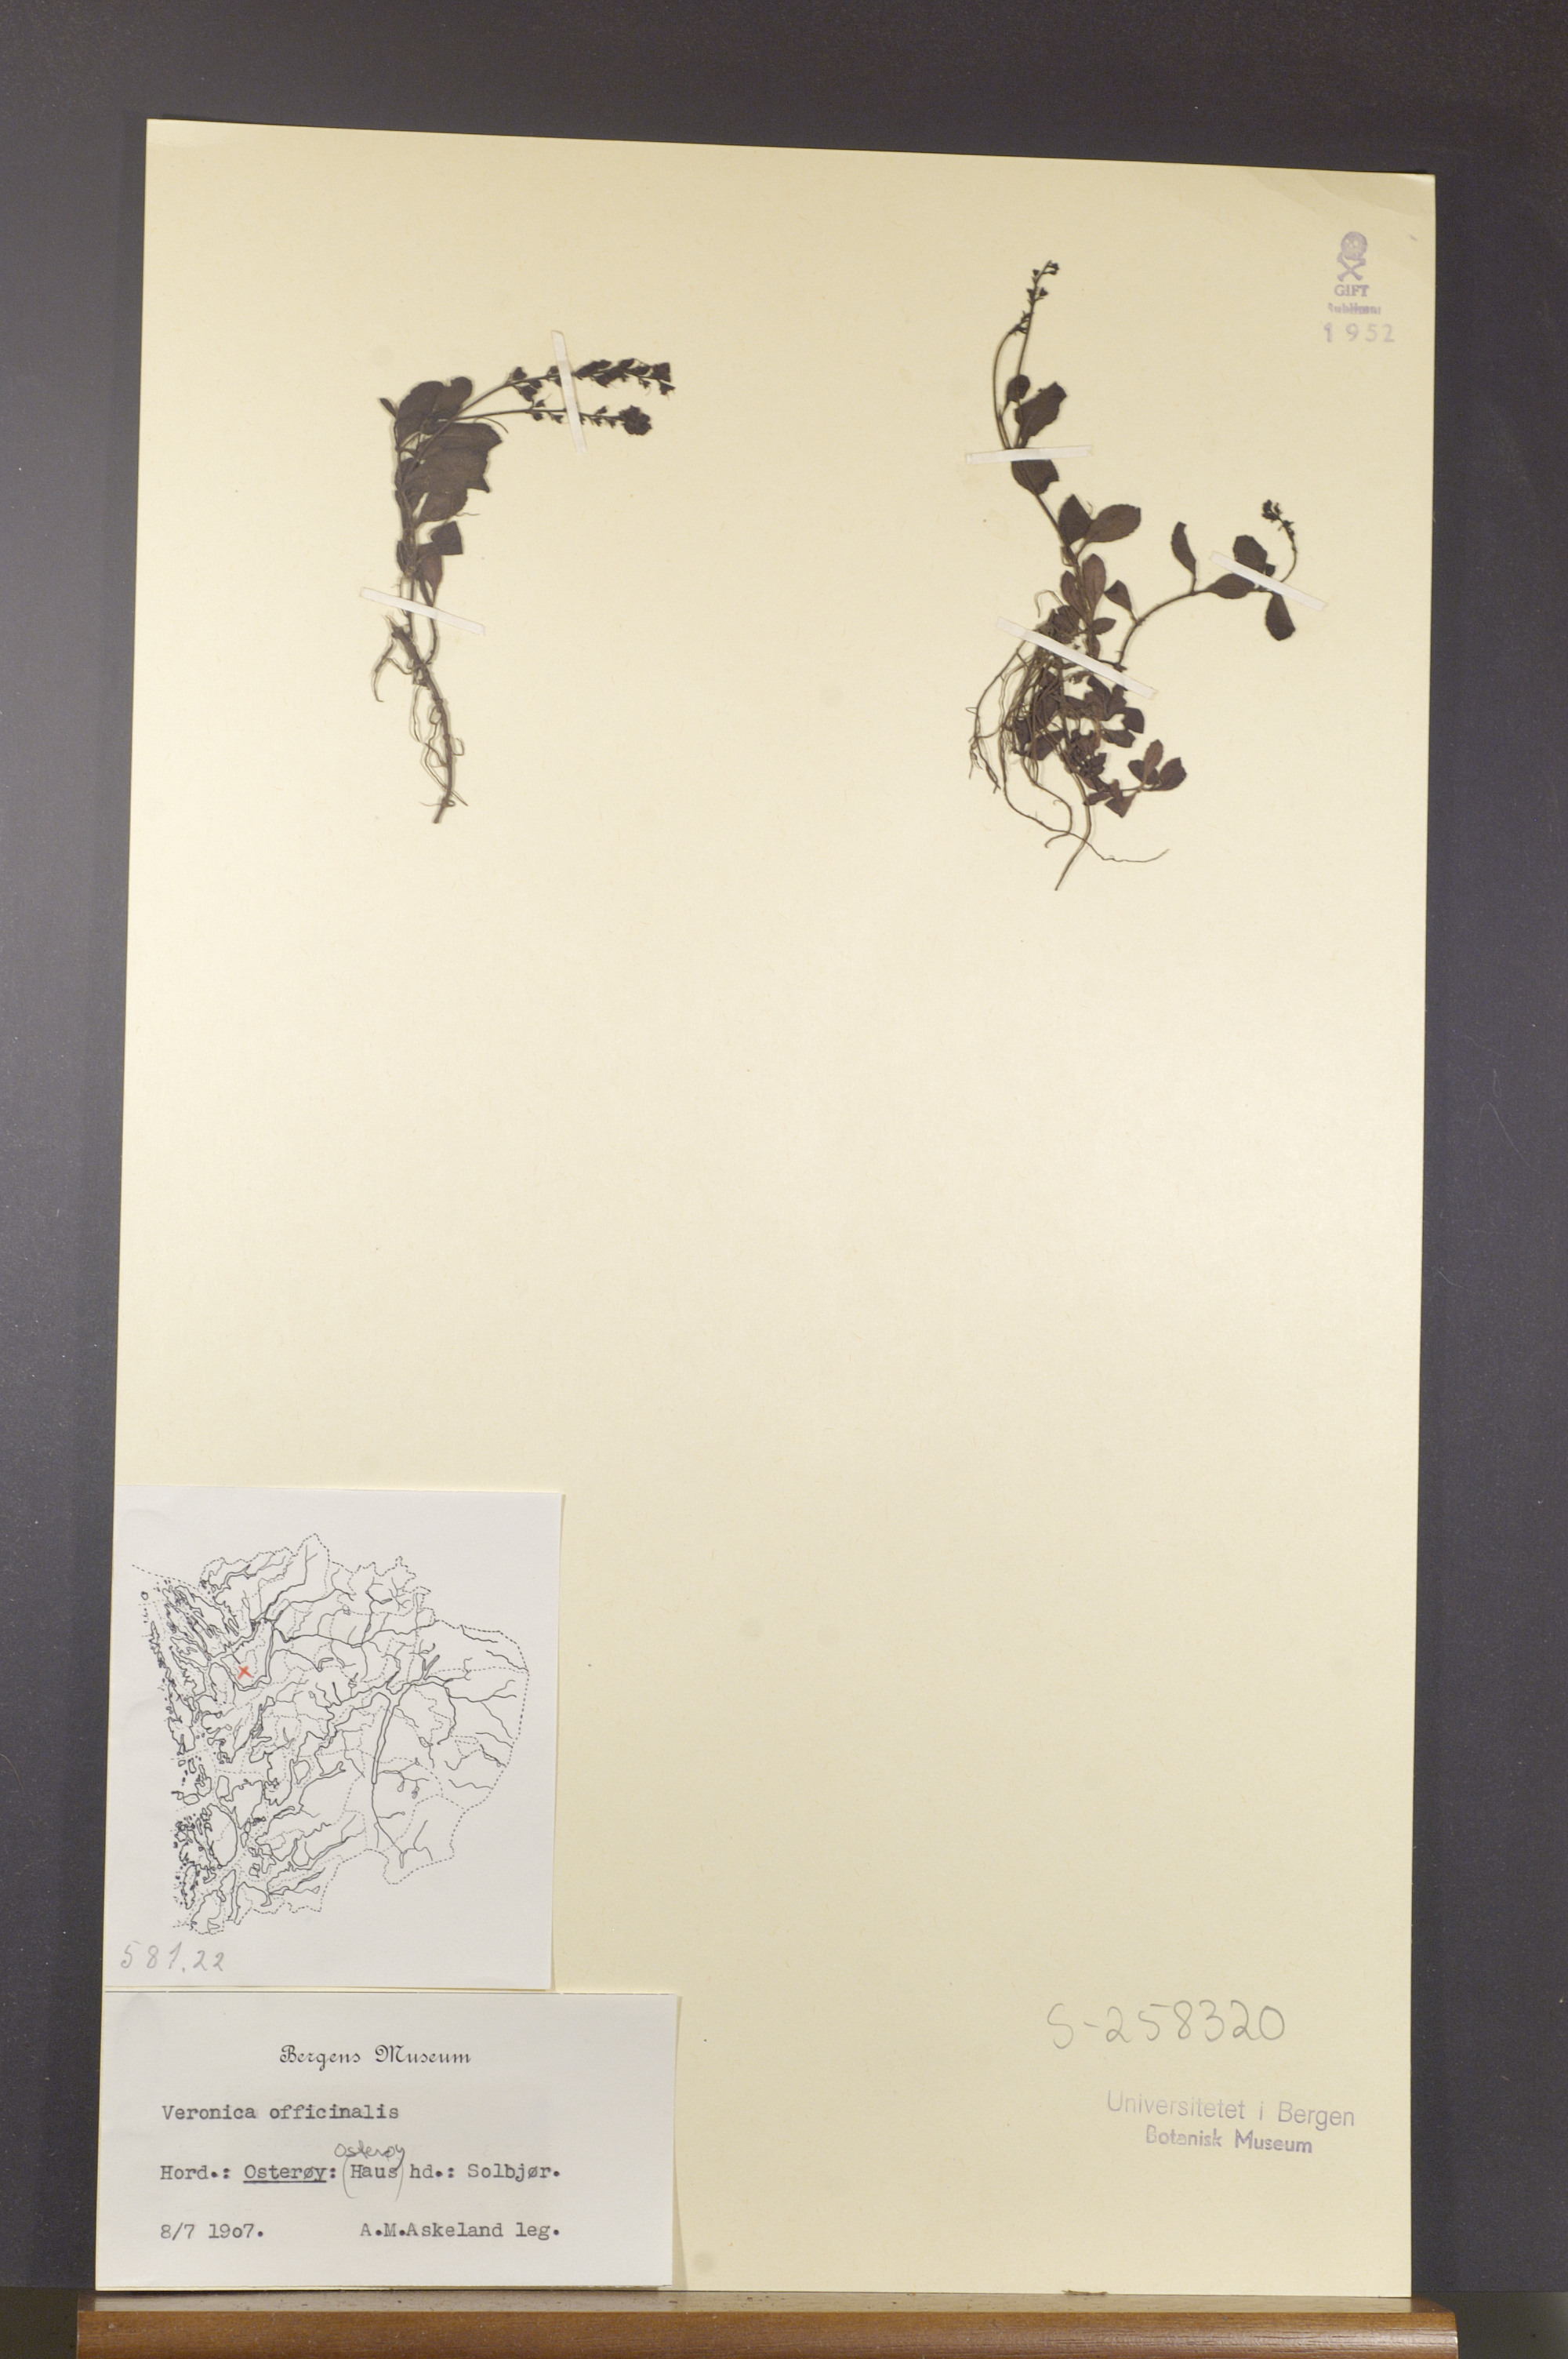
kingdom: Plantae
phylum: Tracheophyta
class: Magnoliopsida
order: Lamiales
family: Plantaginaceae
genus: Veronica
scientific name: Veronica officinalis
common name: Common speedwell
